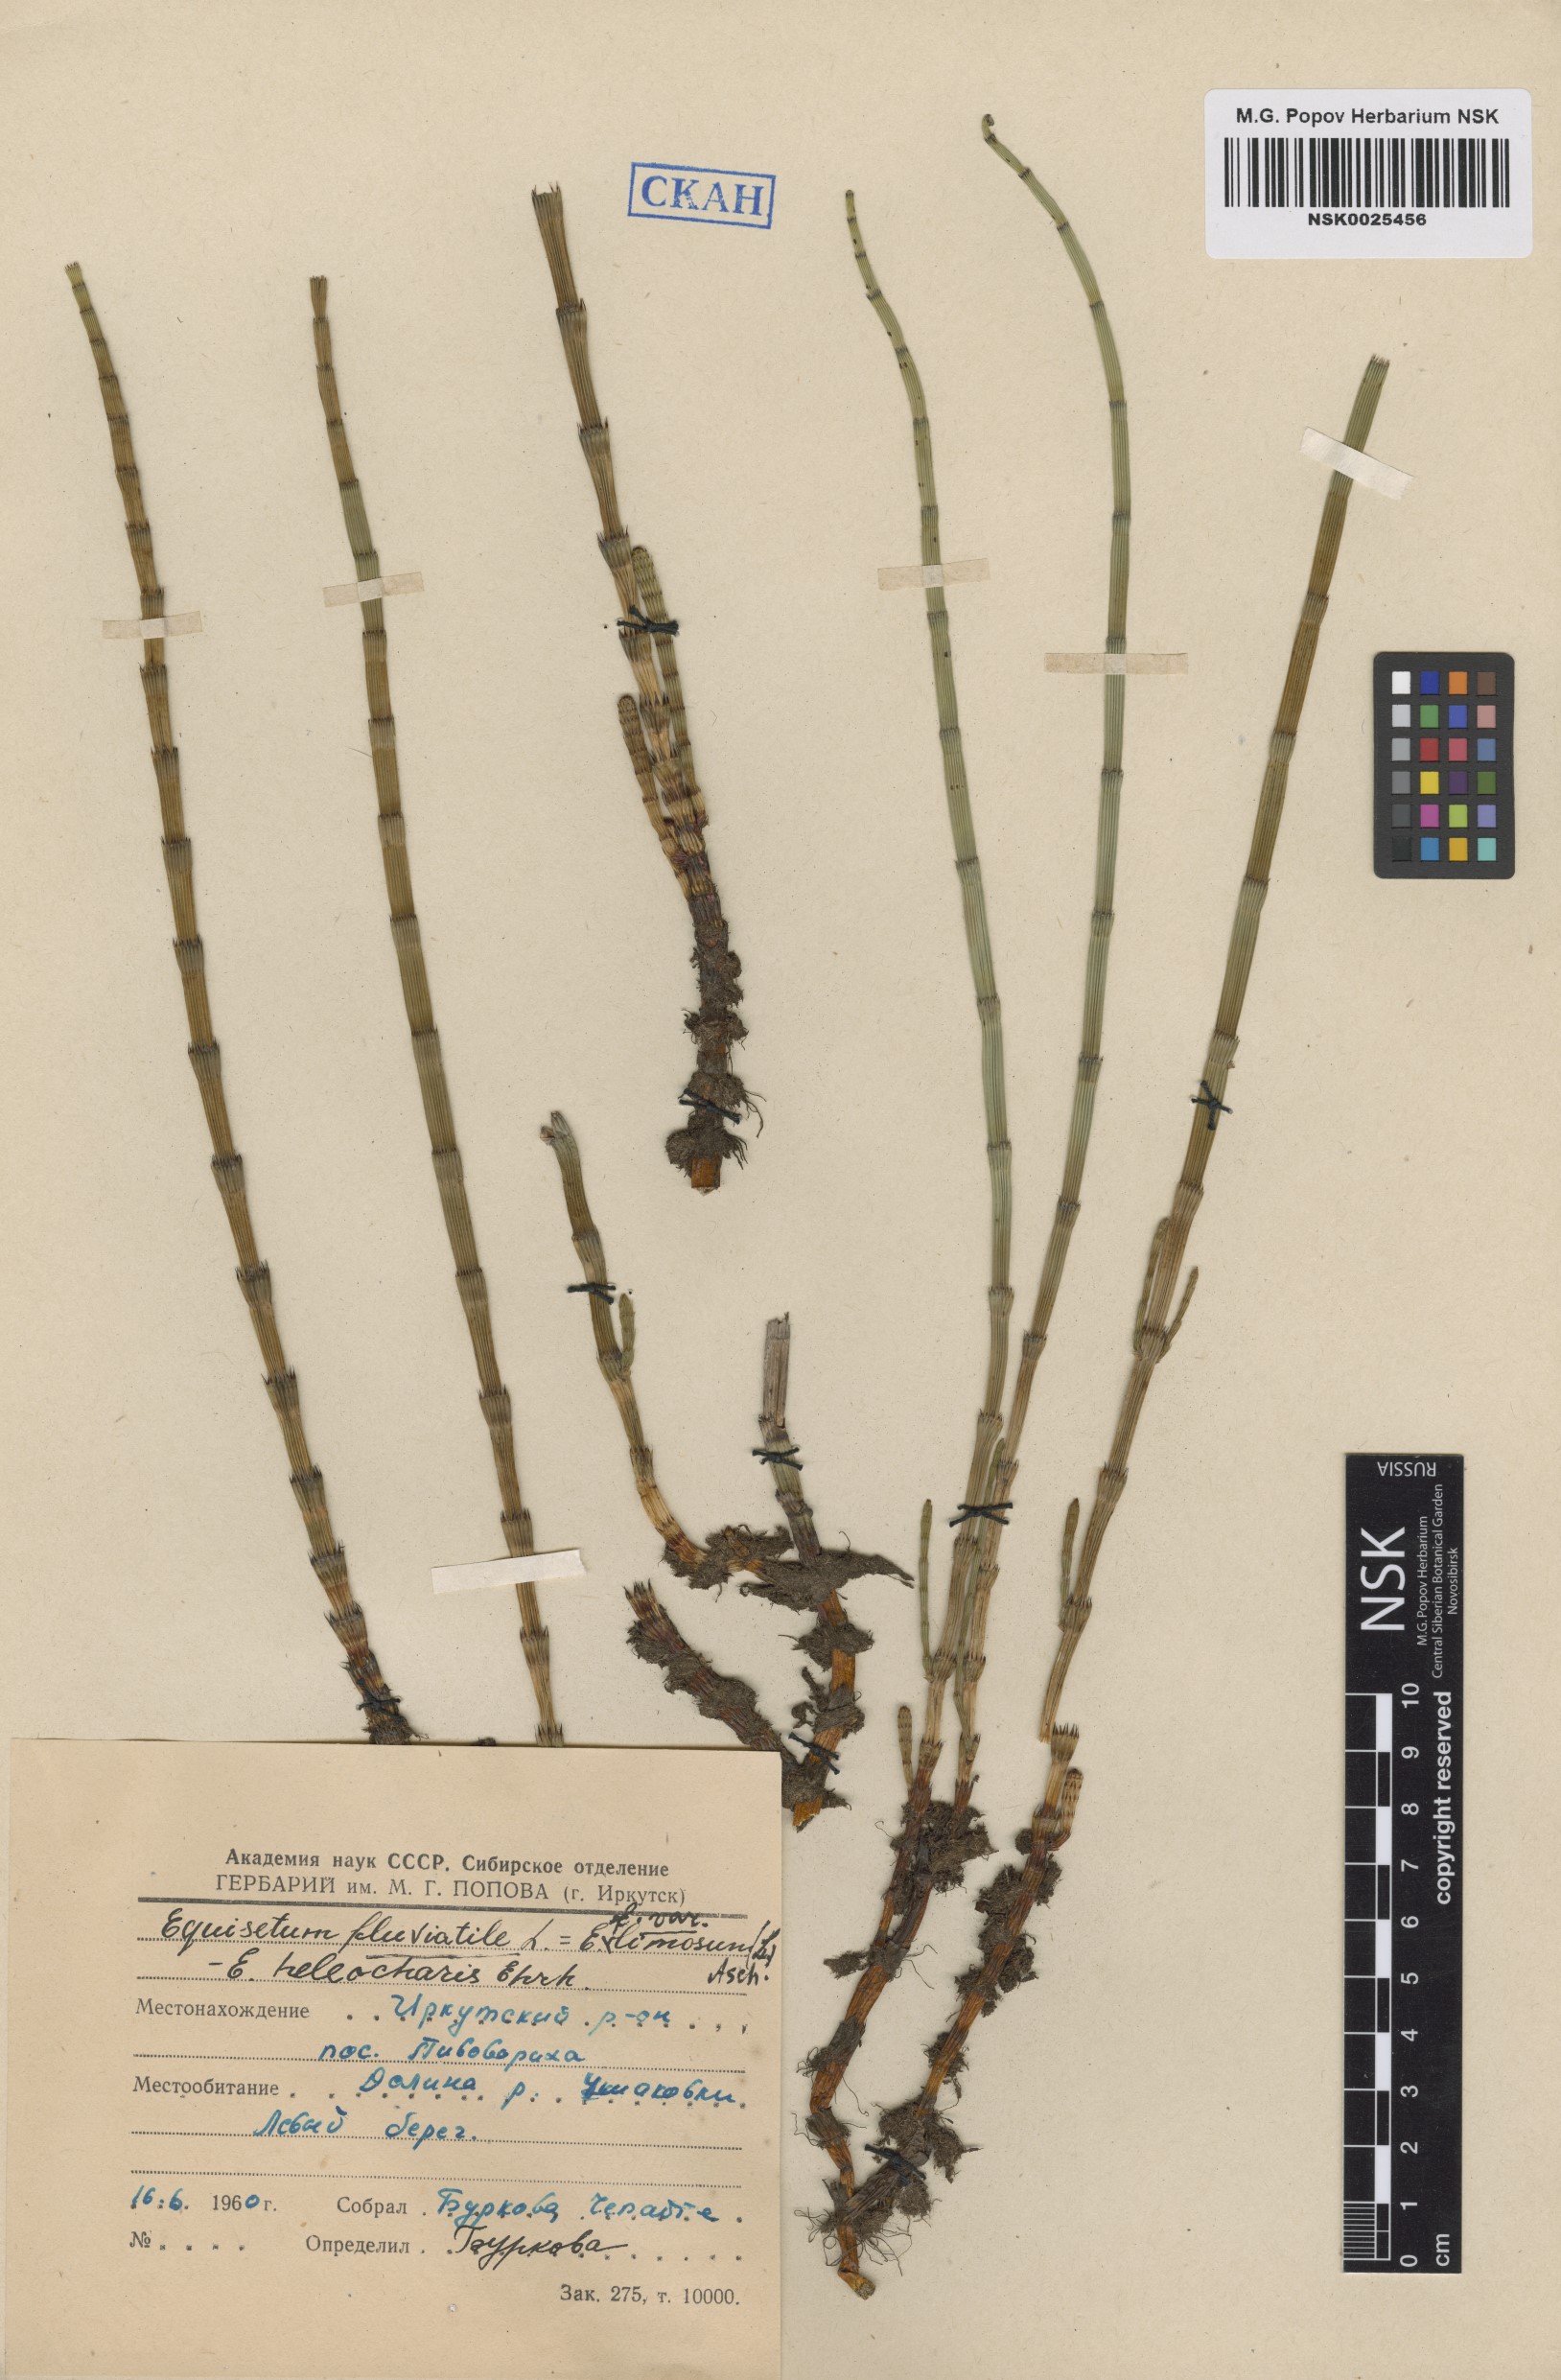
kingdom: Plantae
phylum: Tracheophyta
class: Polypodiopsida
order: Equisetales
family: Equisetaceae
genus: Equisetum
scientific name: Equisetum fluviatile
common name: Water horsetail
